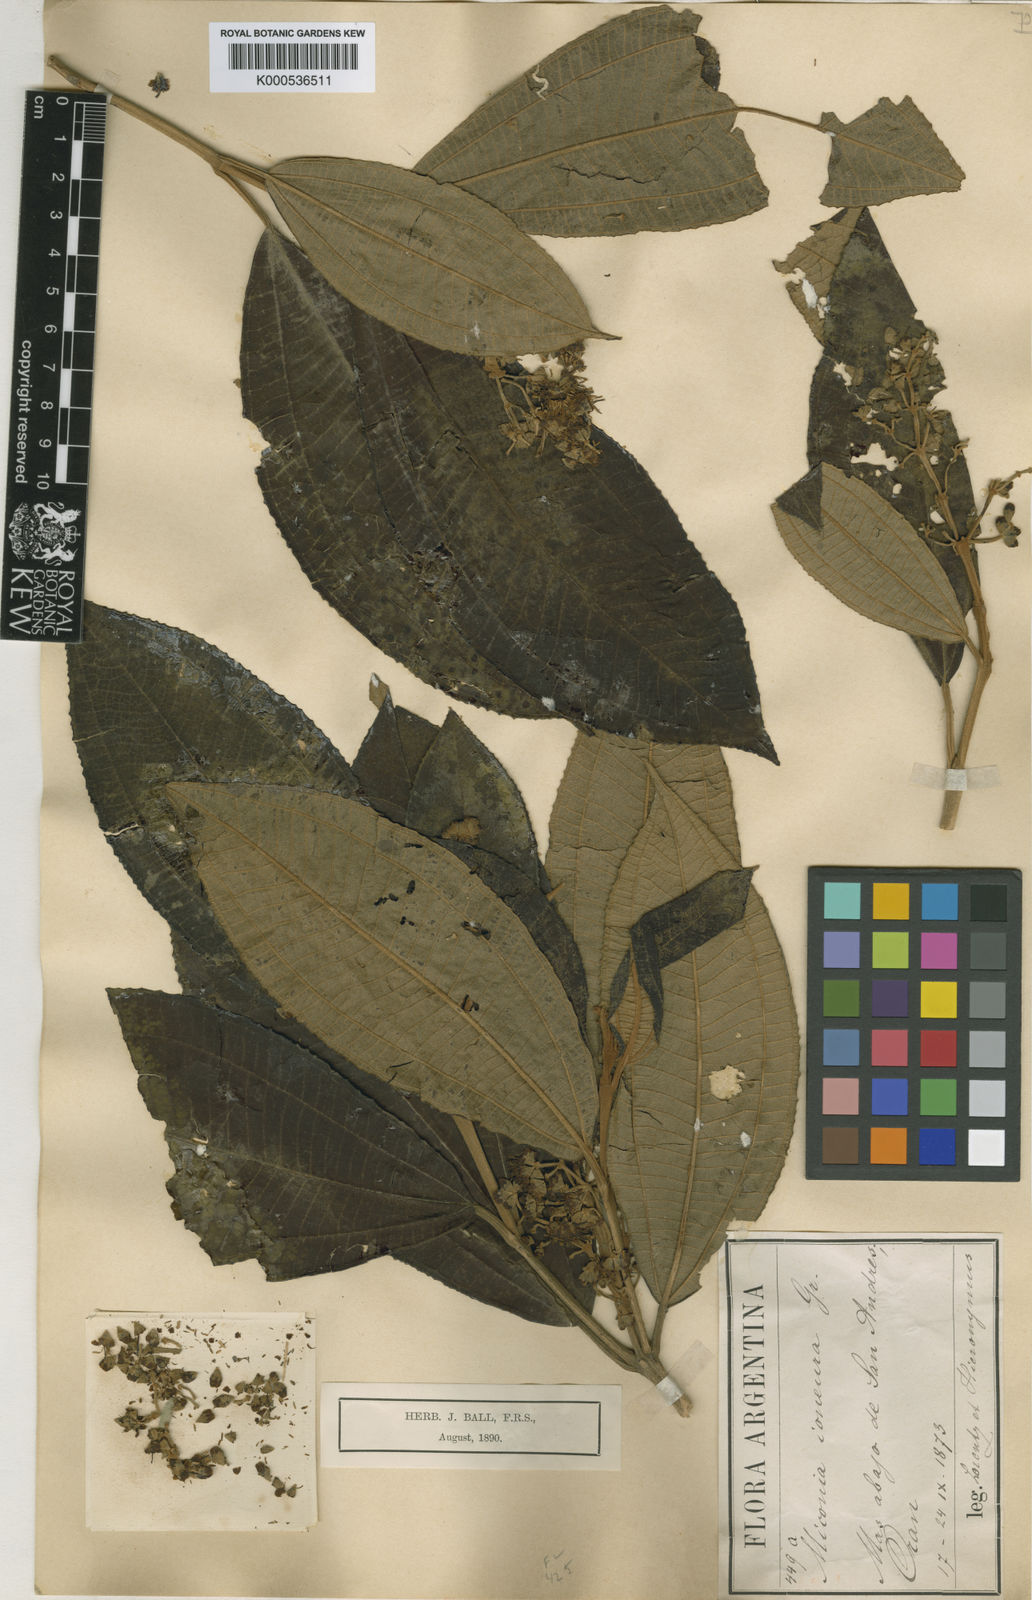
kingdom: Plantae
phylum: Tracheophyta
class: Magnoliopsida
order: Myrtales
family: Melastomataceae
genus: Miconia
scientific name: Miconia ioneura
